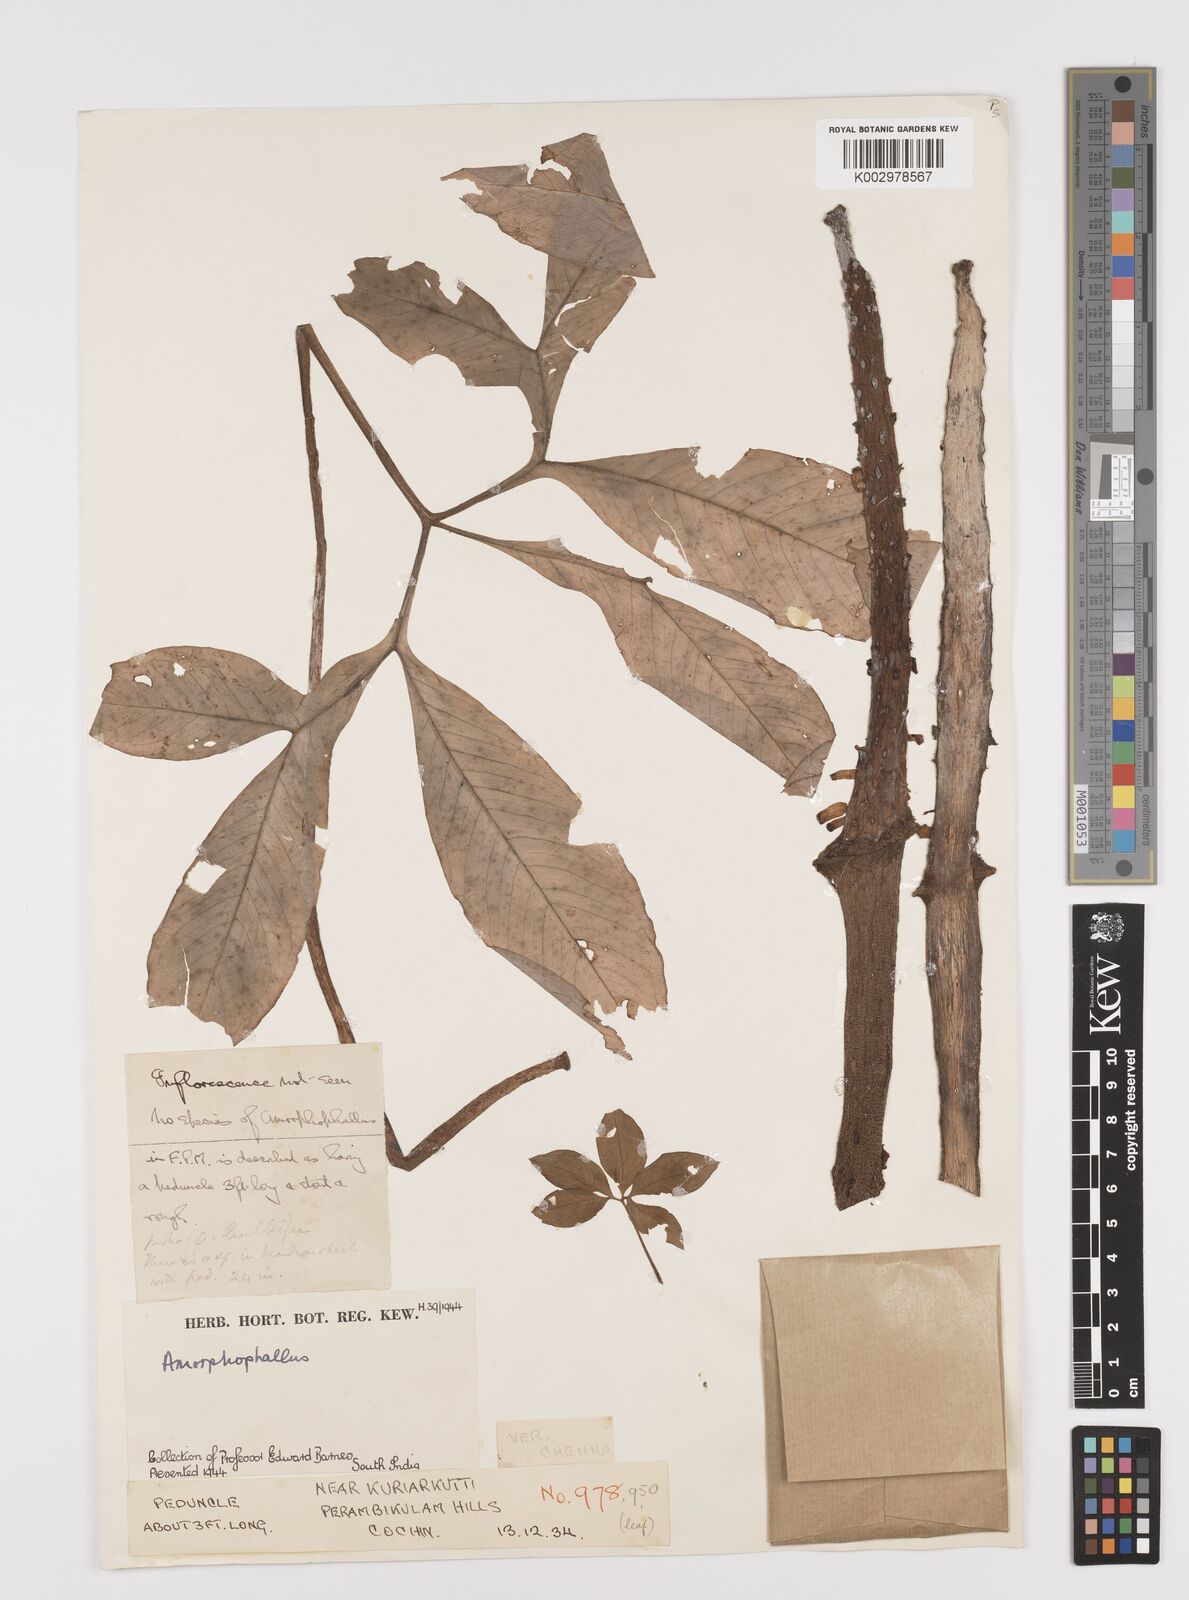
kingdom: Plantae
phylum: Tracheophyta
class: Liliopsida
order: Alismatales
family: Araceae
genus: Amorphophallus
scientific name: Amorphophallus
